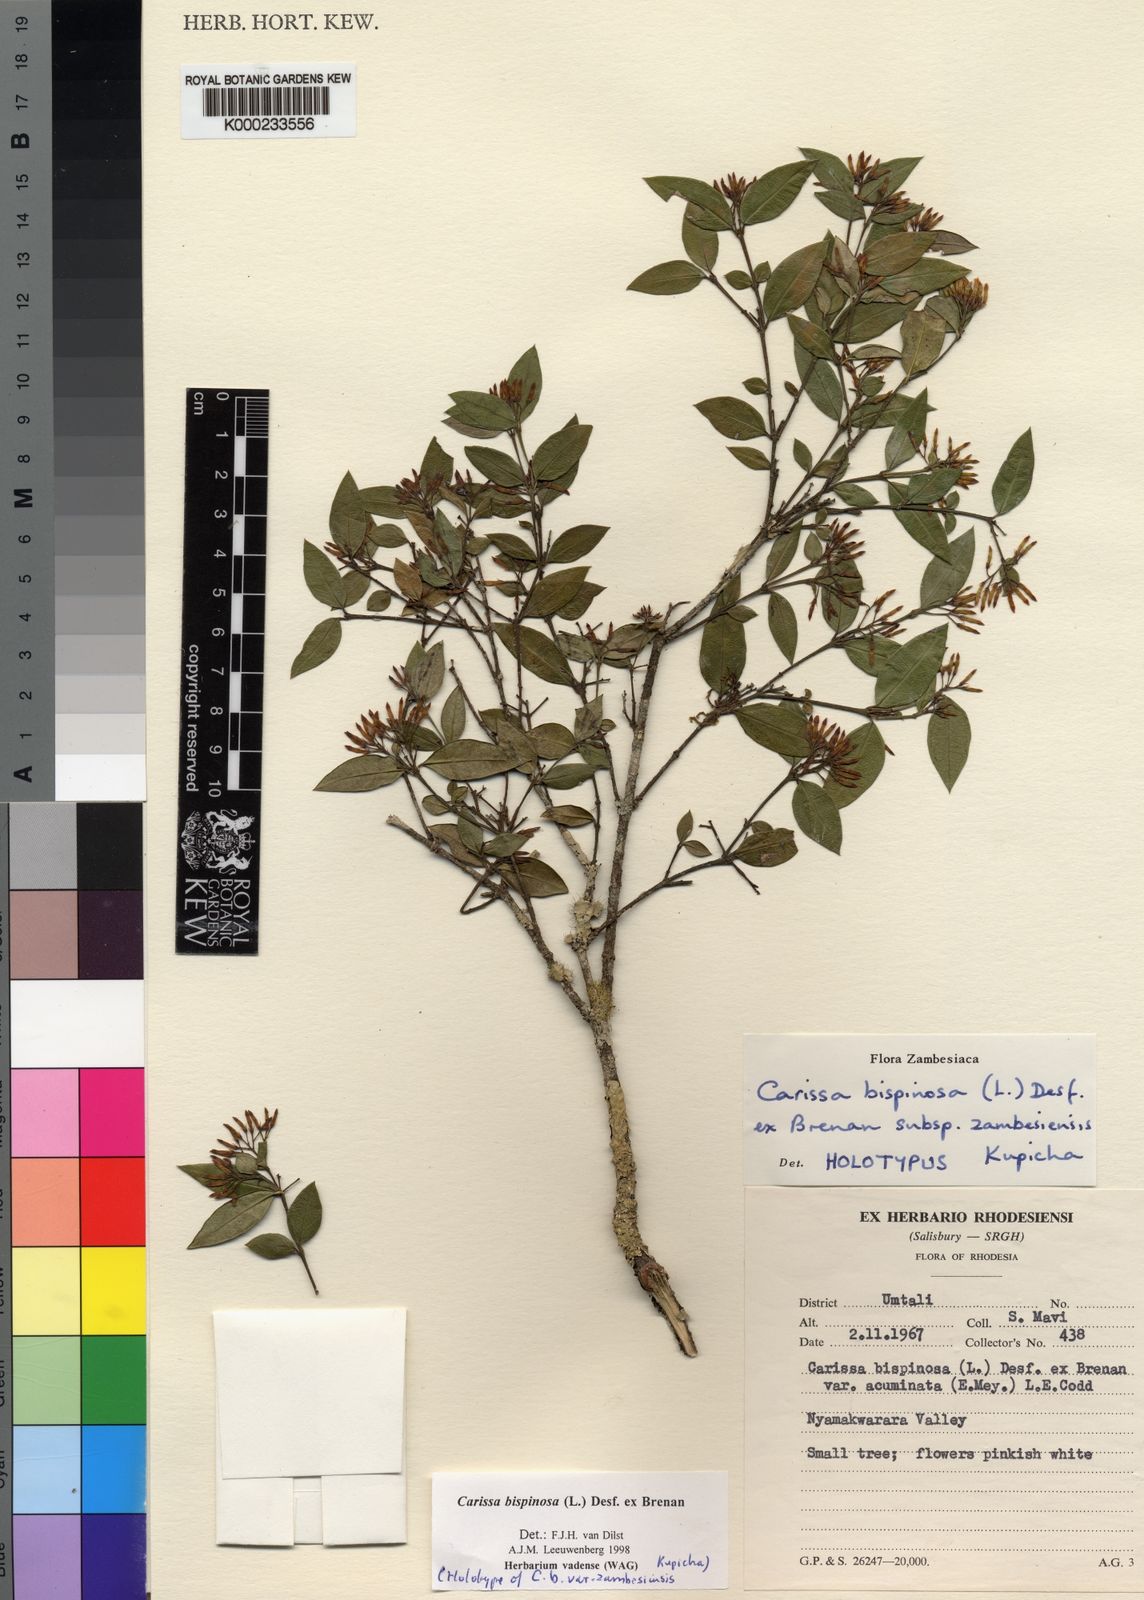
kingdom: Plantae
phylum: Tracheophyta
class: Magnoliopsida
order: Gentianales
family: Apocynaceae
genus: Carissa
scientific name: Carissa bispinosa
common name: Forest num-num
